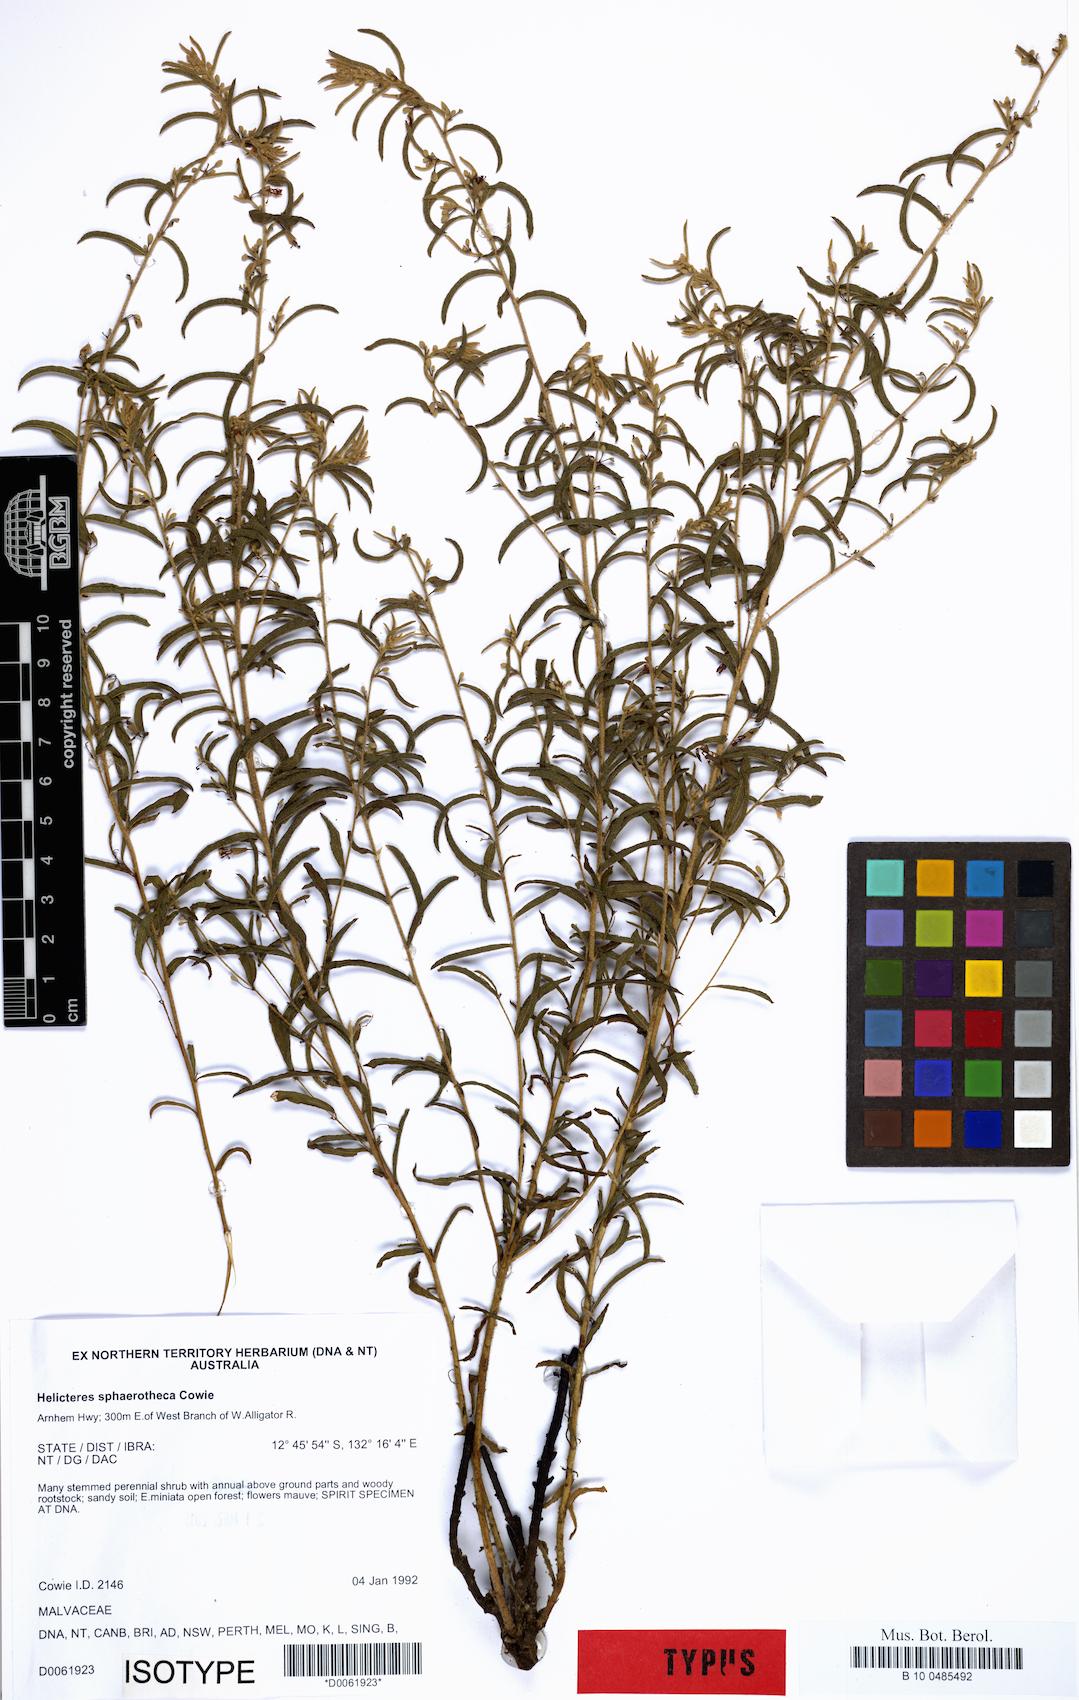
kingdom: Plantae
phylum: Tracheophyta
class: Magnoliopsida
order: Malvales
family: Malvaceae
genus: Helicteres
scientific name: Helicteres sphaerotheca
